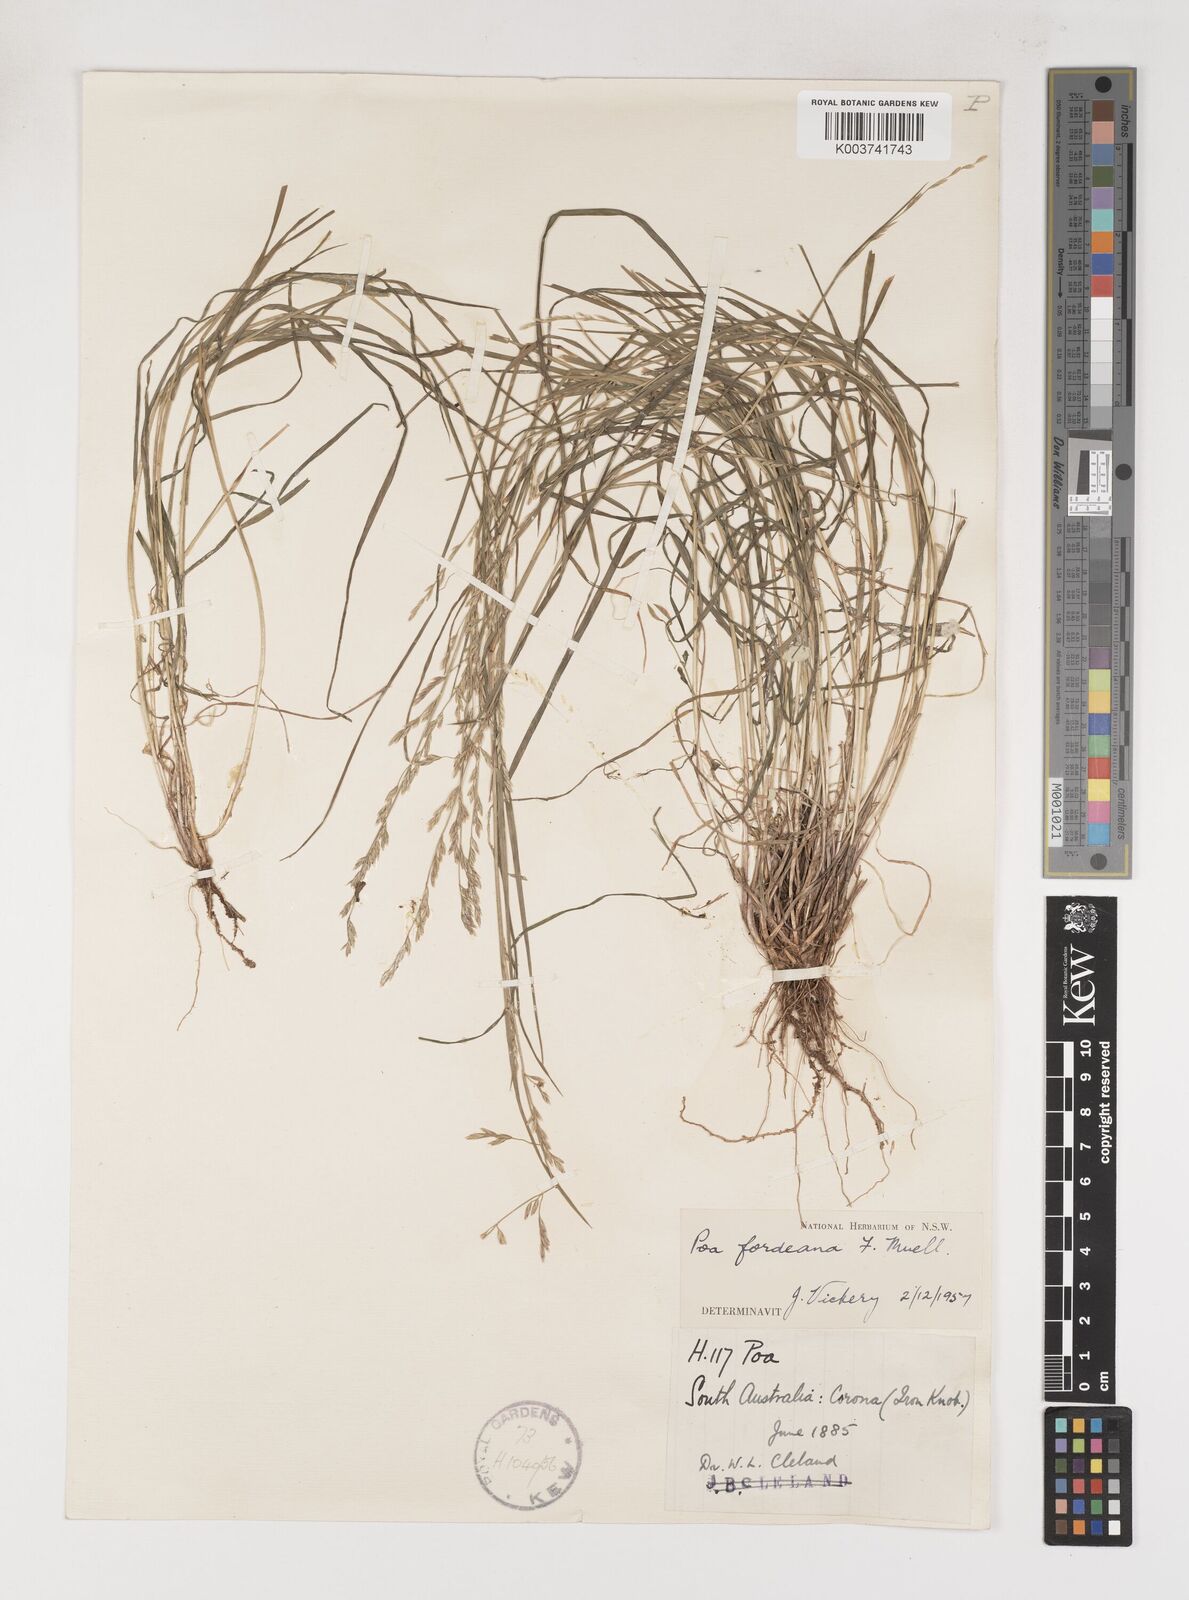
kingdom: Plantae
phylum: Tracheophyta
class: Liliopsida
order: Poales
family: Poaceae
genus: Poa
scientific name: Poa fordeana
